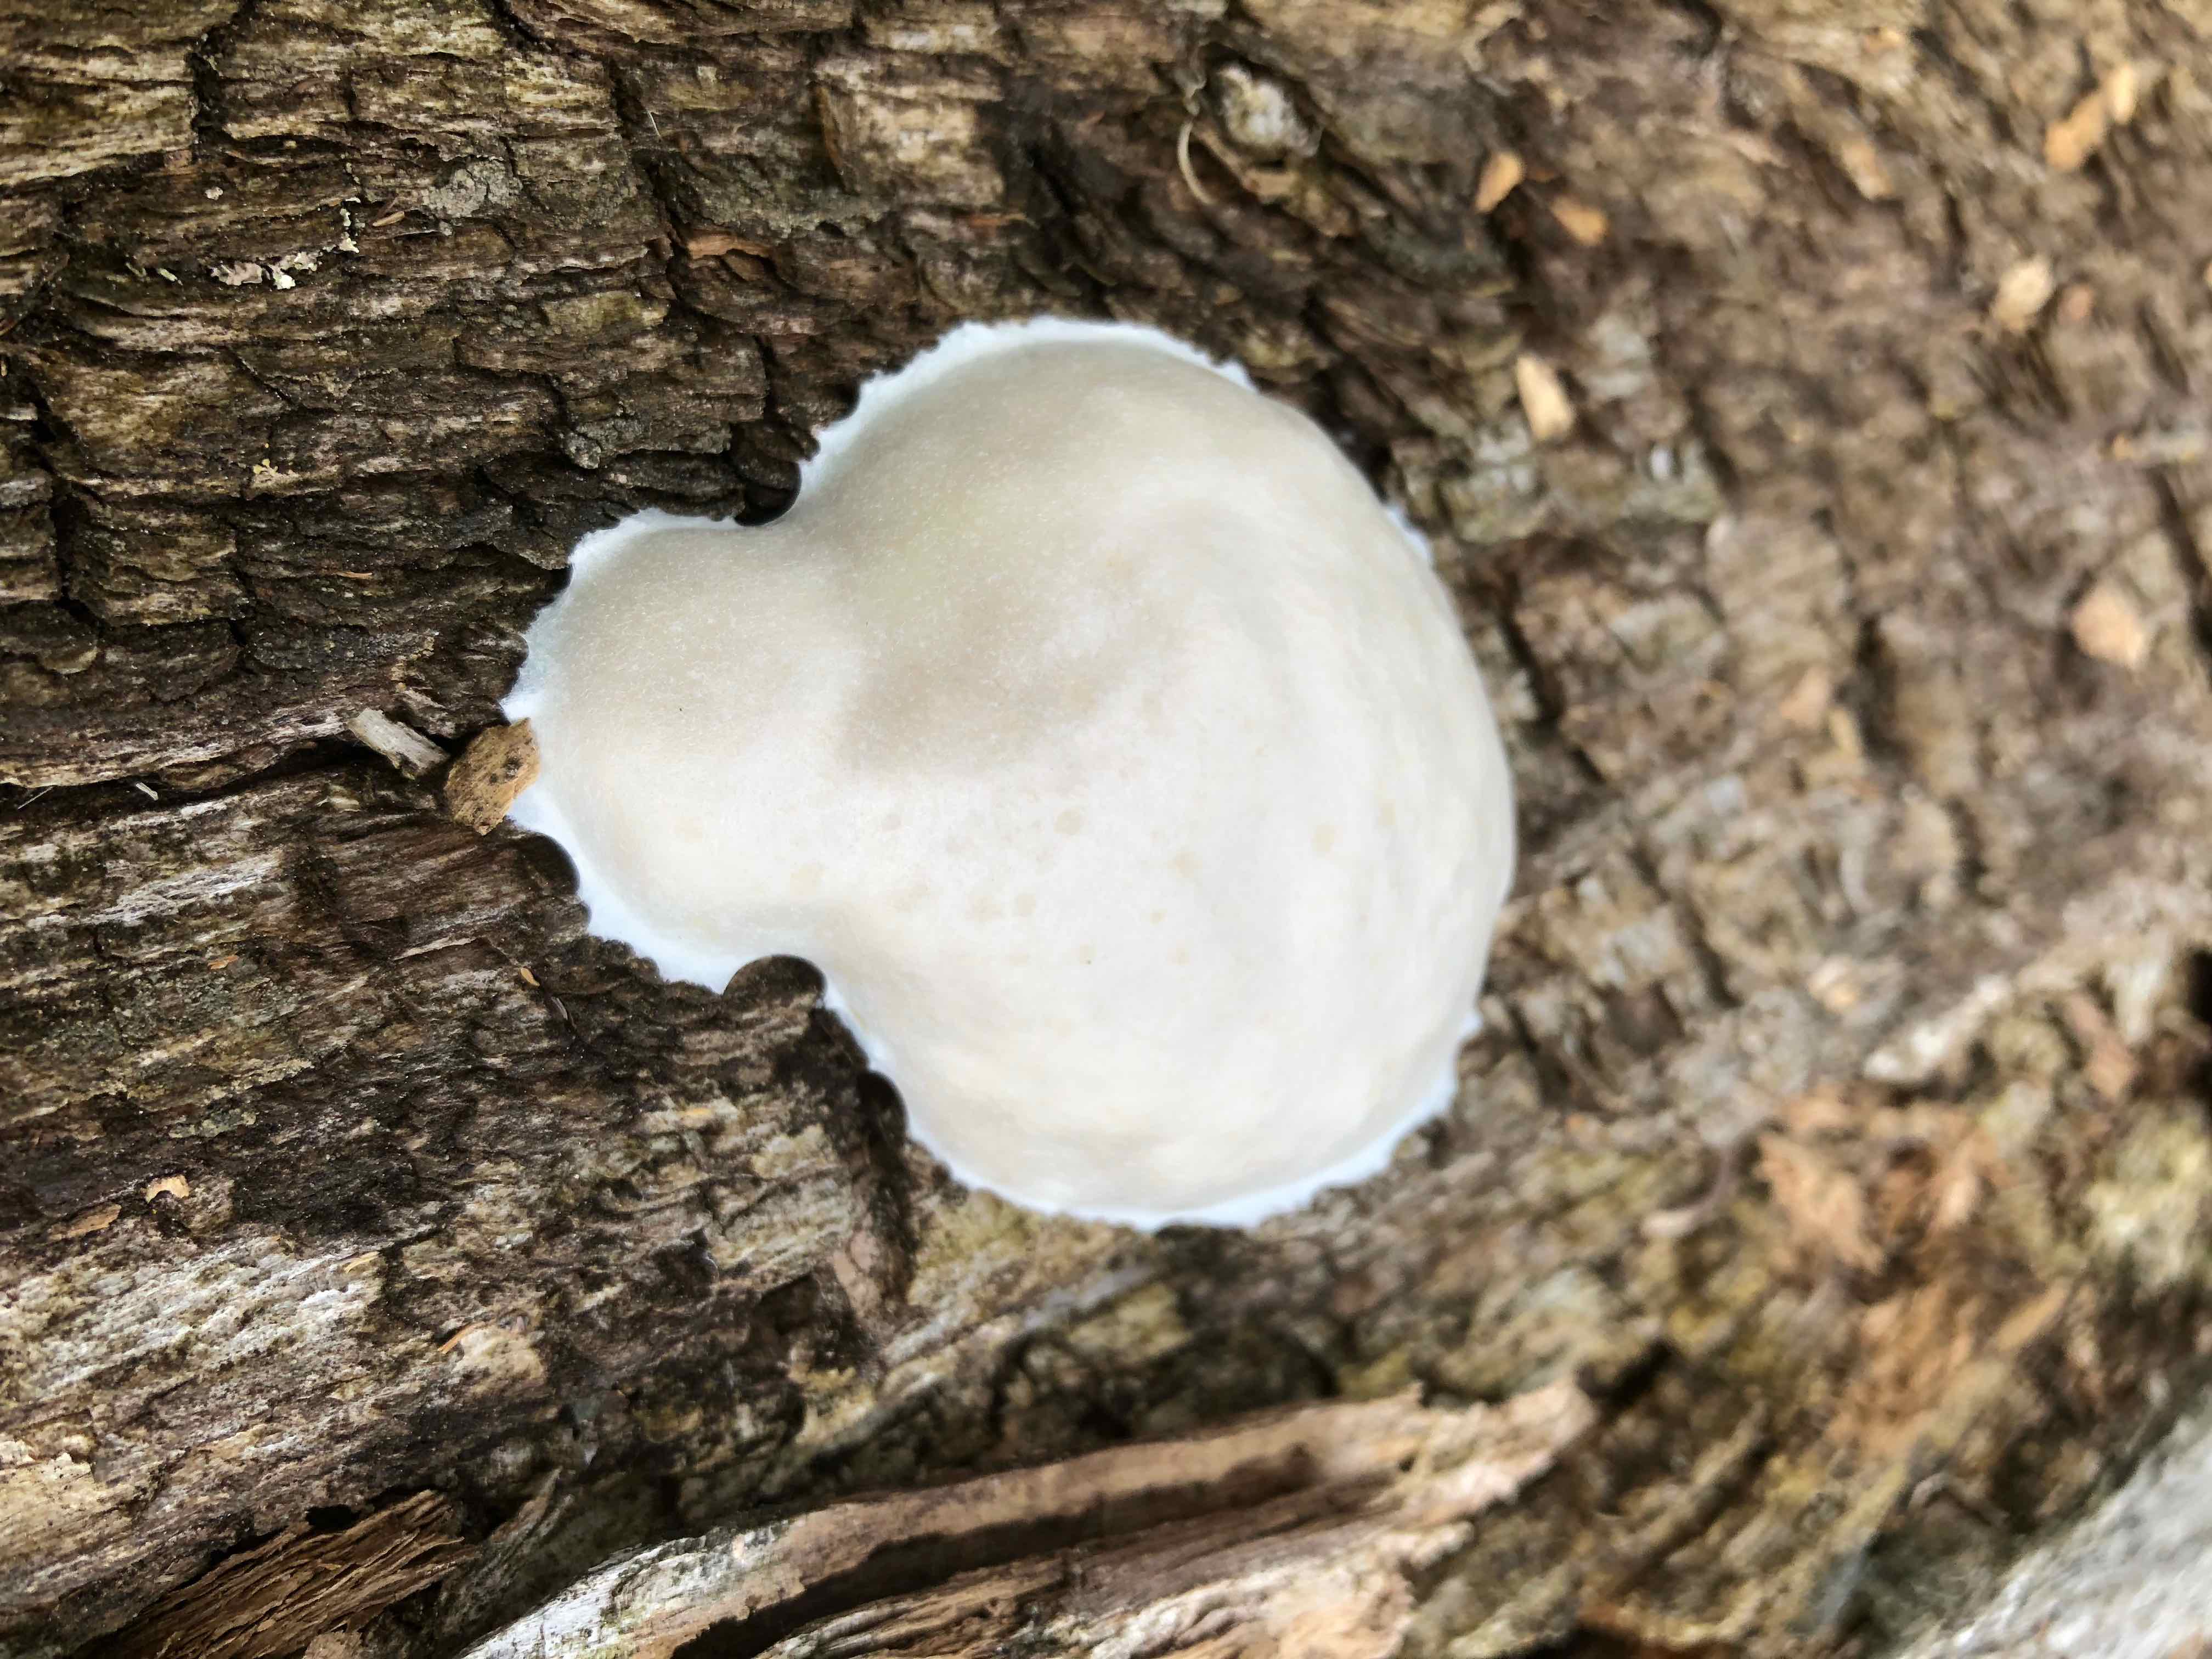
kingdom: Protozoa
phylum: Mycetozoa
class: Myxomycetes
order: Cribrariales
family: Tubiferaceae
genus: Reticularia
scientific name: Reticularia lycoperdon
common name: skinnende støvpude
